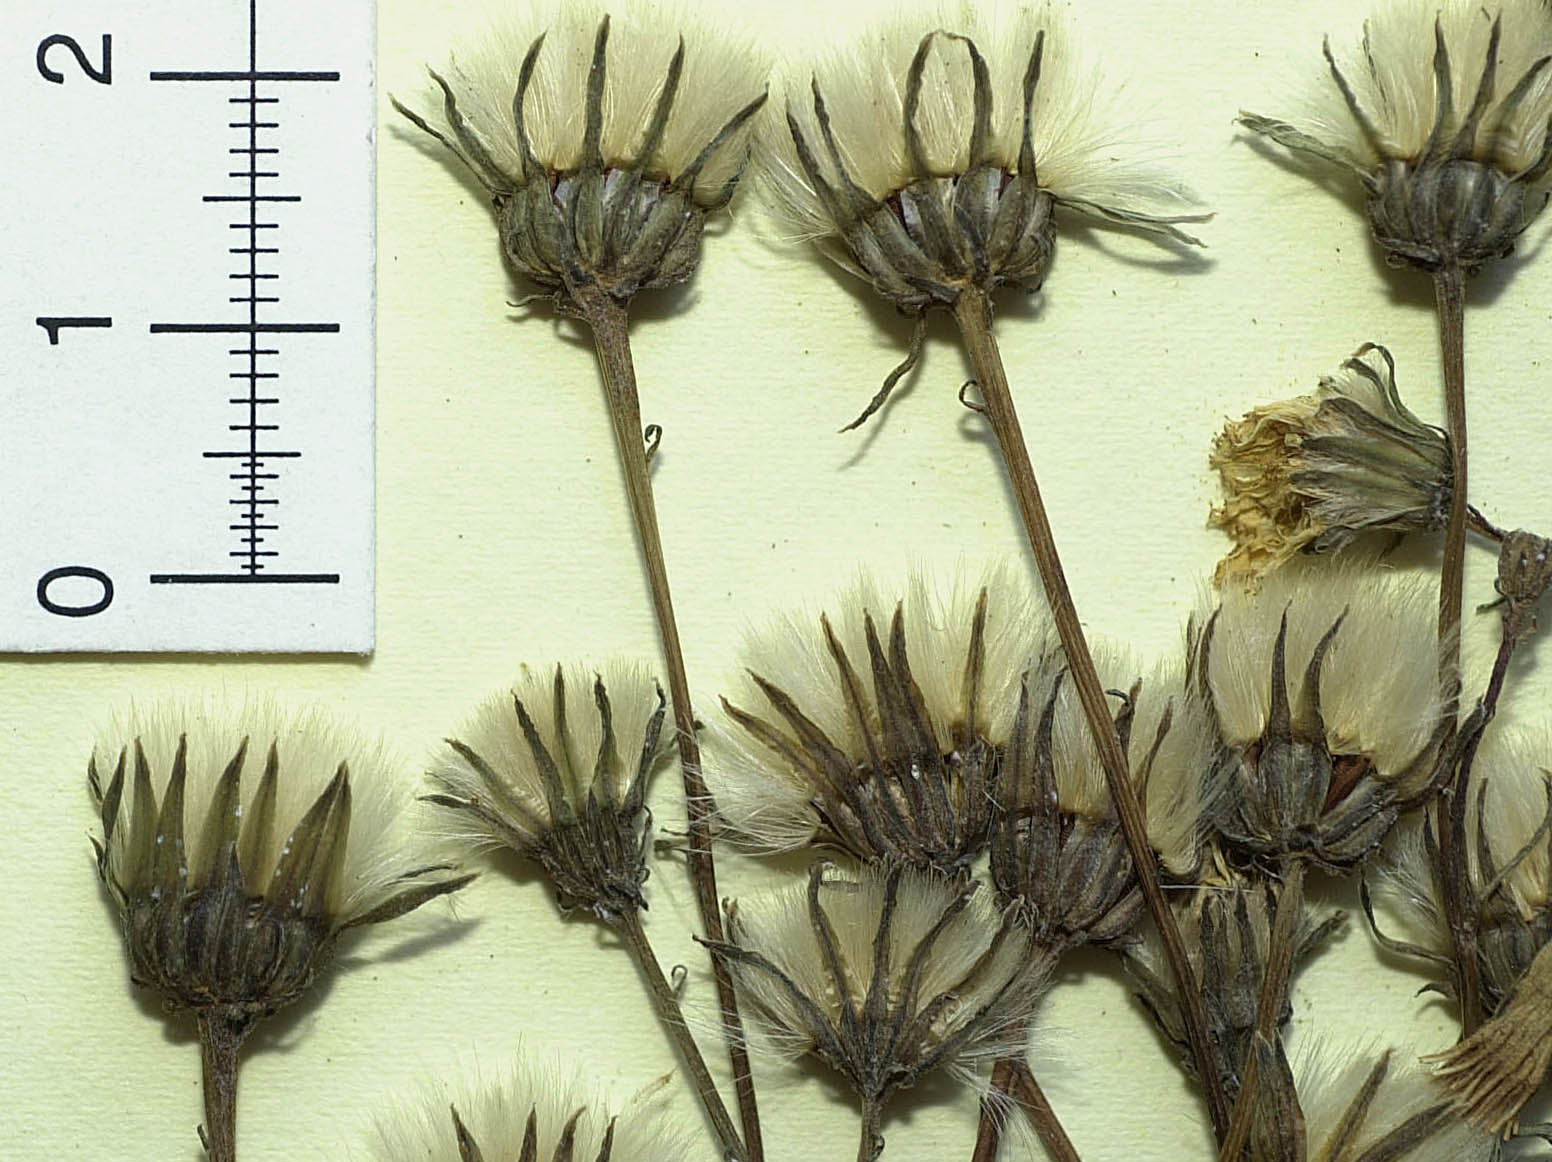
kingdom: Plantae
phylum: Tracheophyta
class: Magnoliopsida
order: Asterales
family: Asteraceae
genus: Picris
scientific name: Picris angustifolia
